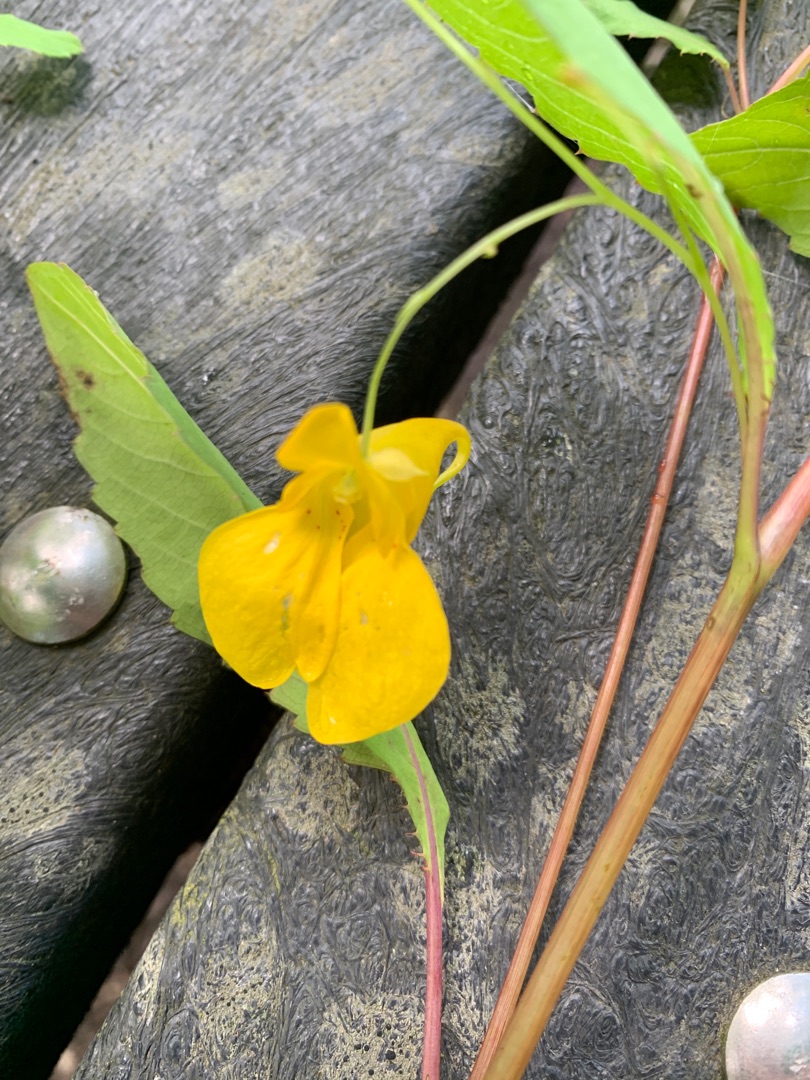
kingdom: Plantae
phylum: Tracheophyta
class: Magnoliopsida
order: Ericales
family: Balsaminaceae
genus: Impatiens
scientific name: Impatiens noli-tangere
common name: Spring-balsamin
